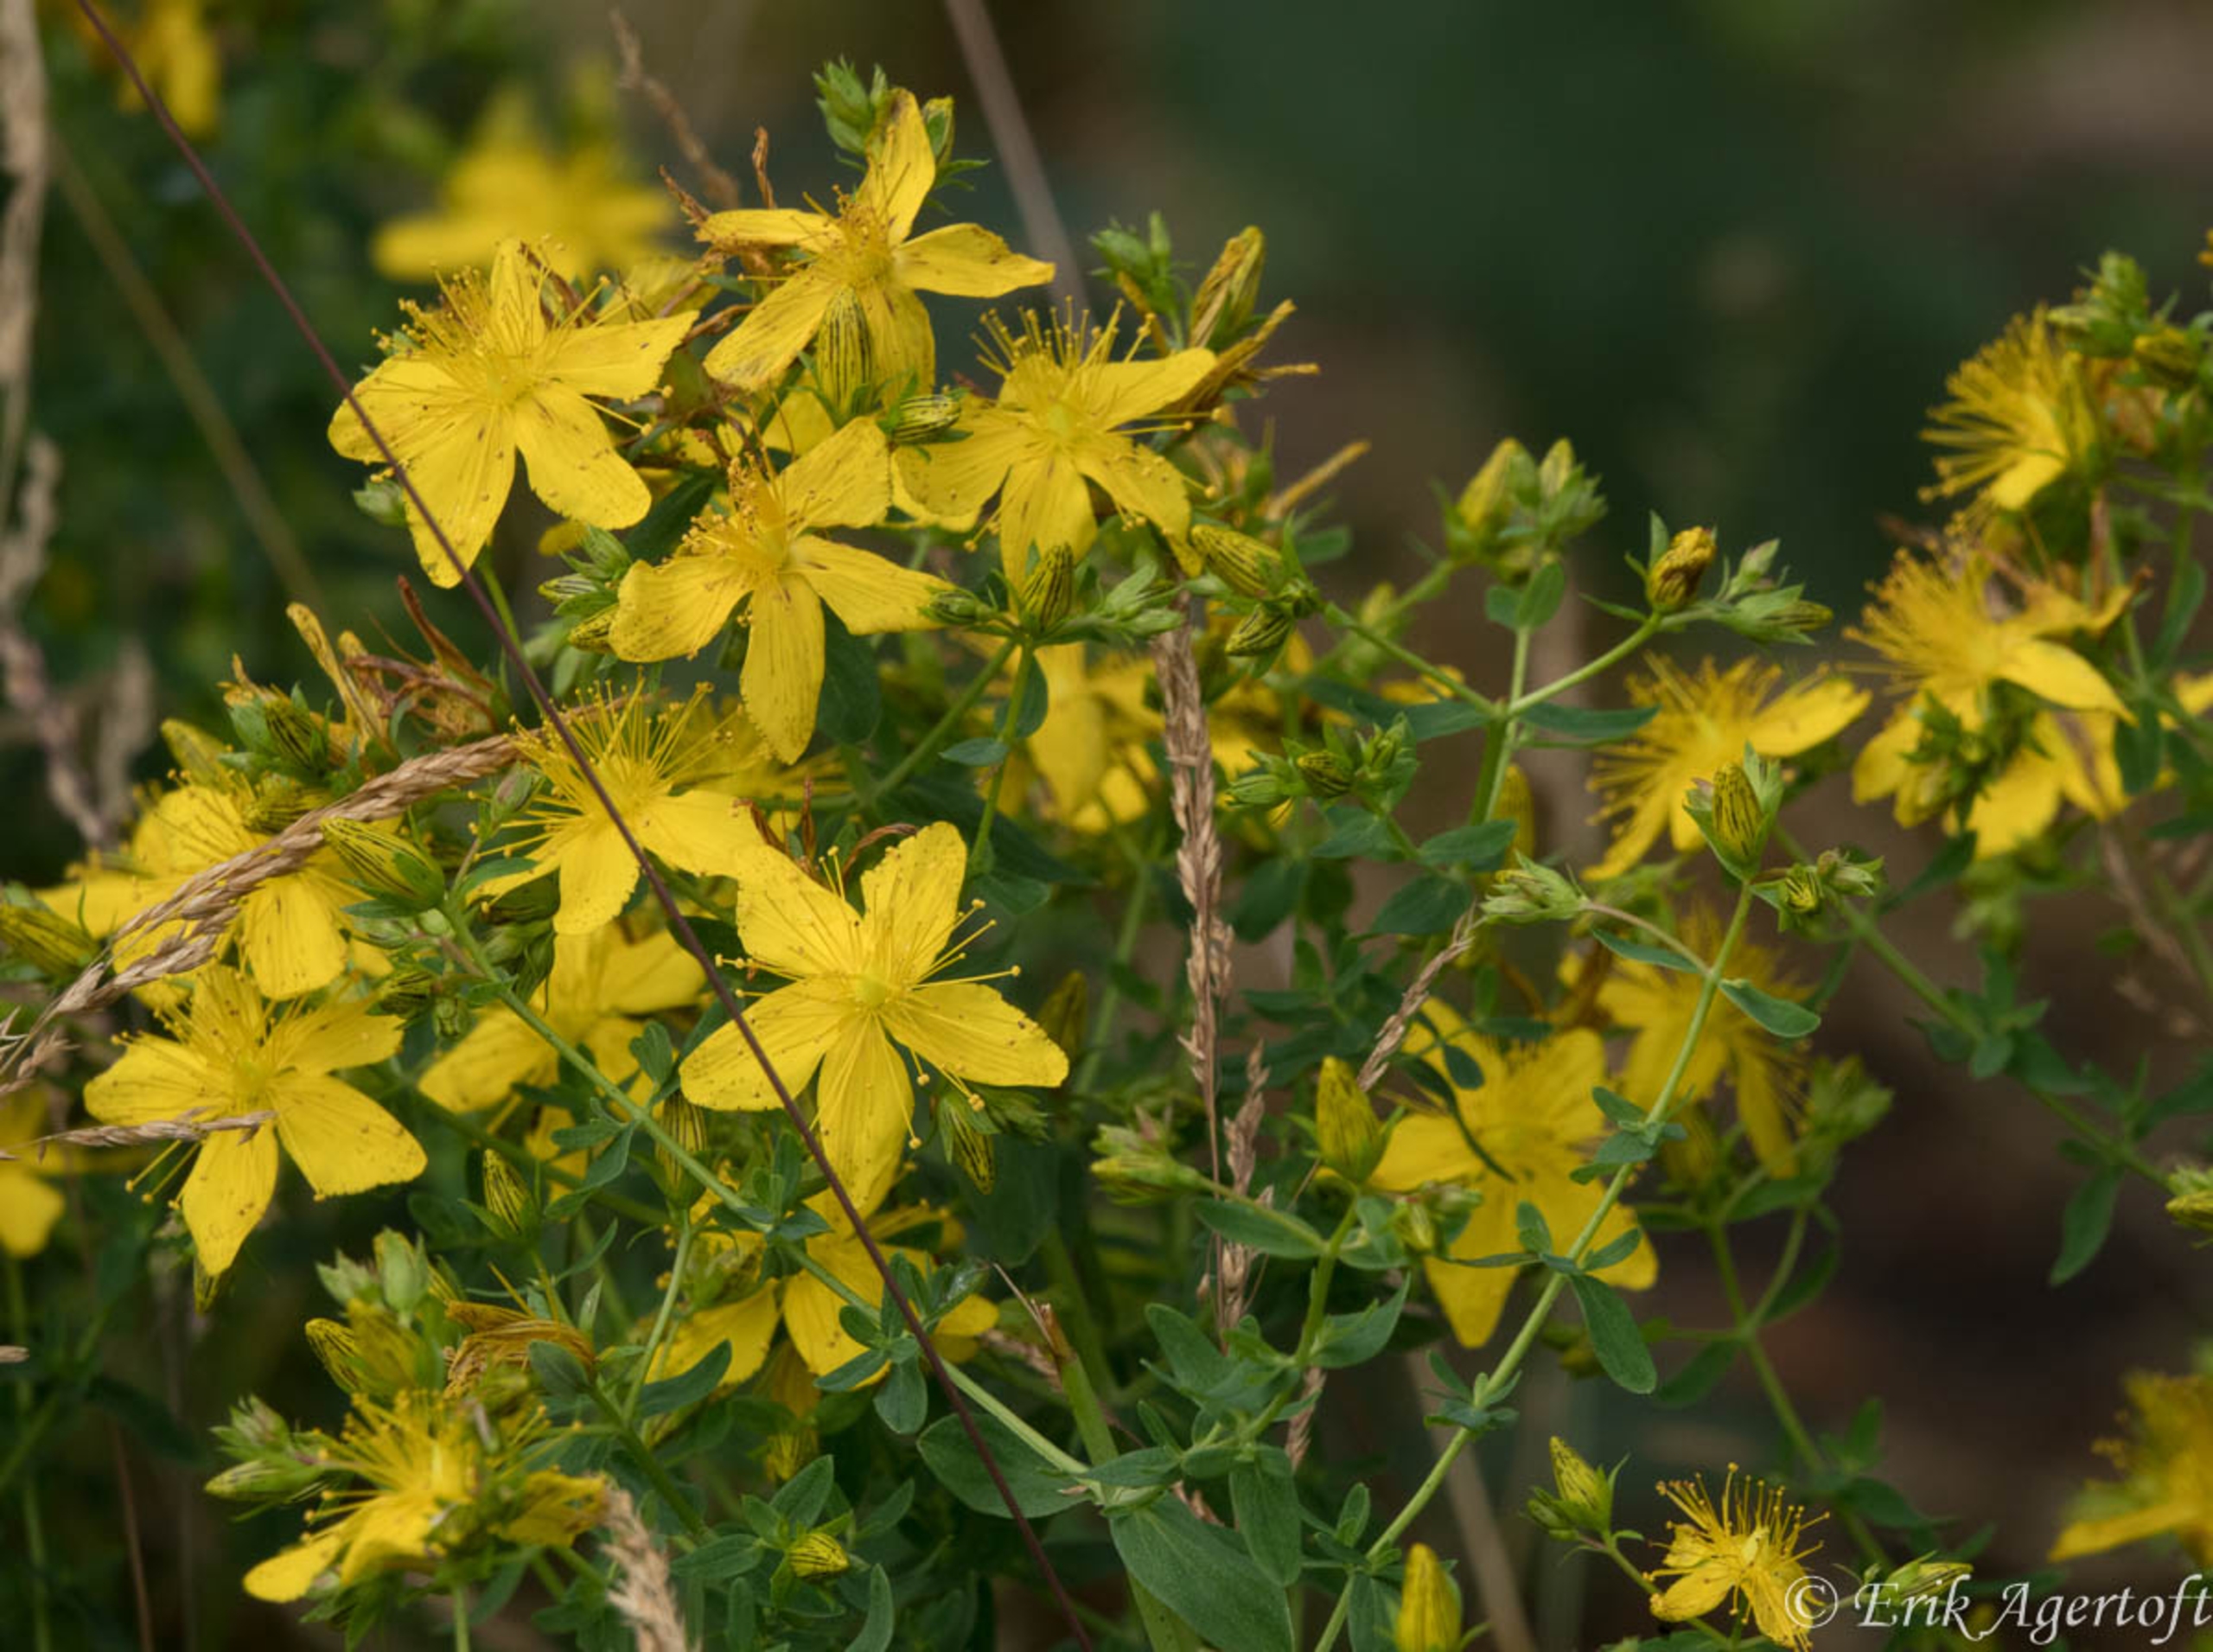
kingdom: Plantae
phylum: Tracheophyta
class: Magnoliopsida
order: Malpighiales
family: Hypericaceae
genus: Hypericum
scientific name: Hypericum perforatum
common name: Prikbladet perikon
